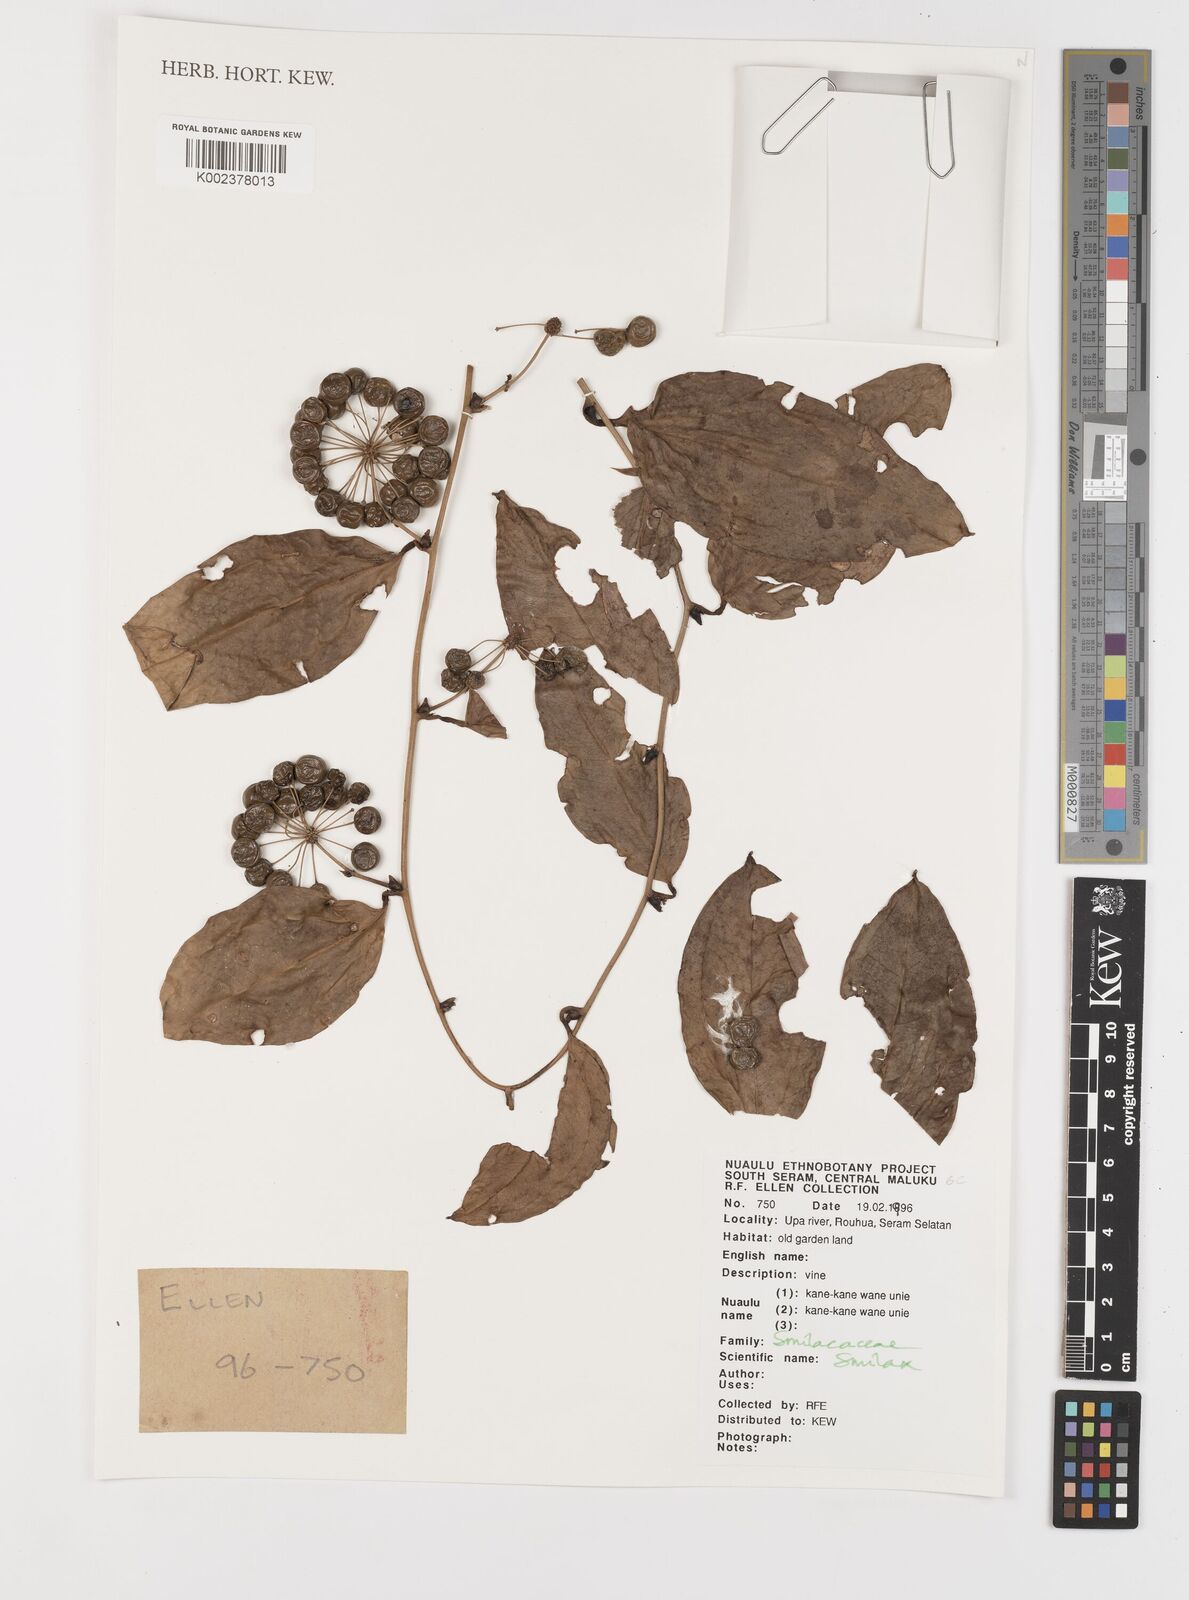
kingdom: Plantae
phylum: Tracheophyta
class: Liliopsida
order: Liliales
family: Smilacaceae
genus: Smilax
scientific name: Smilax
